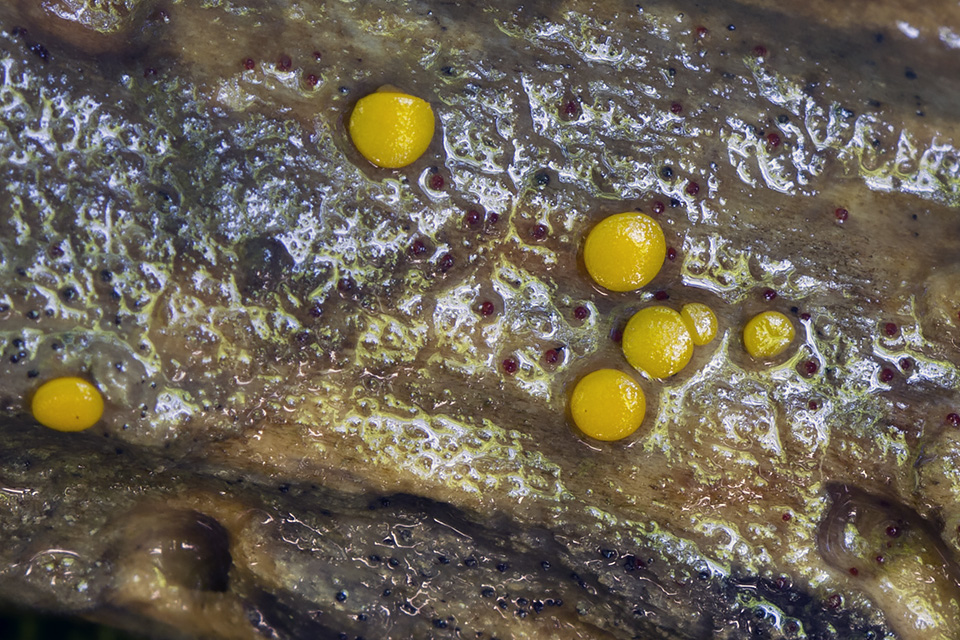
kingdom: Fungi
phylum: Ascomycota
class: Pezizomycetes
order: Pezizales
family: Pyronemataceae
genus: Miladina
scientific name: Miladina lecithina
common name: vandbæger
